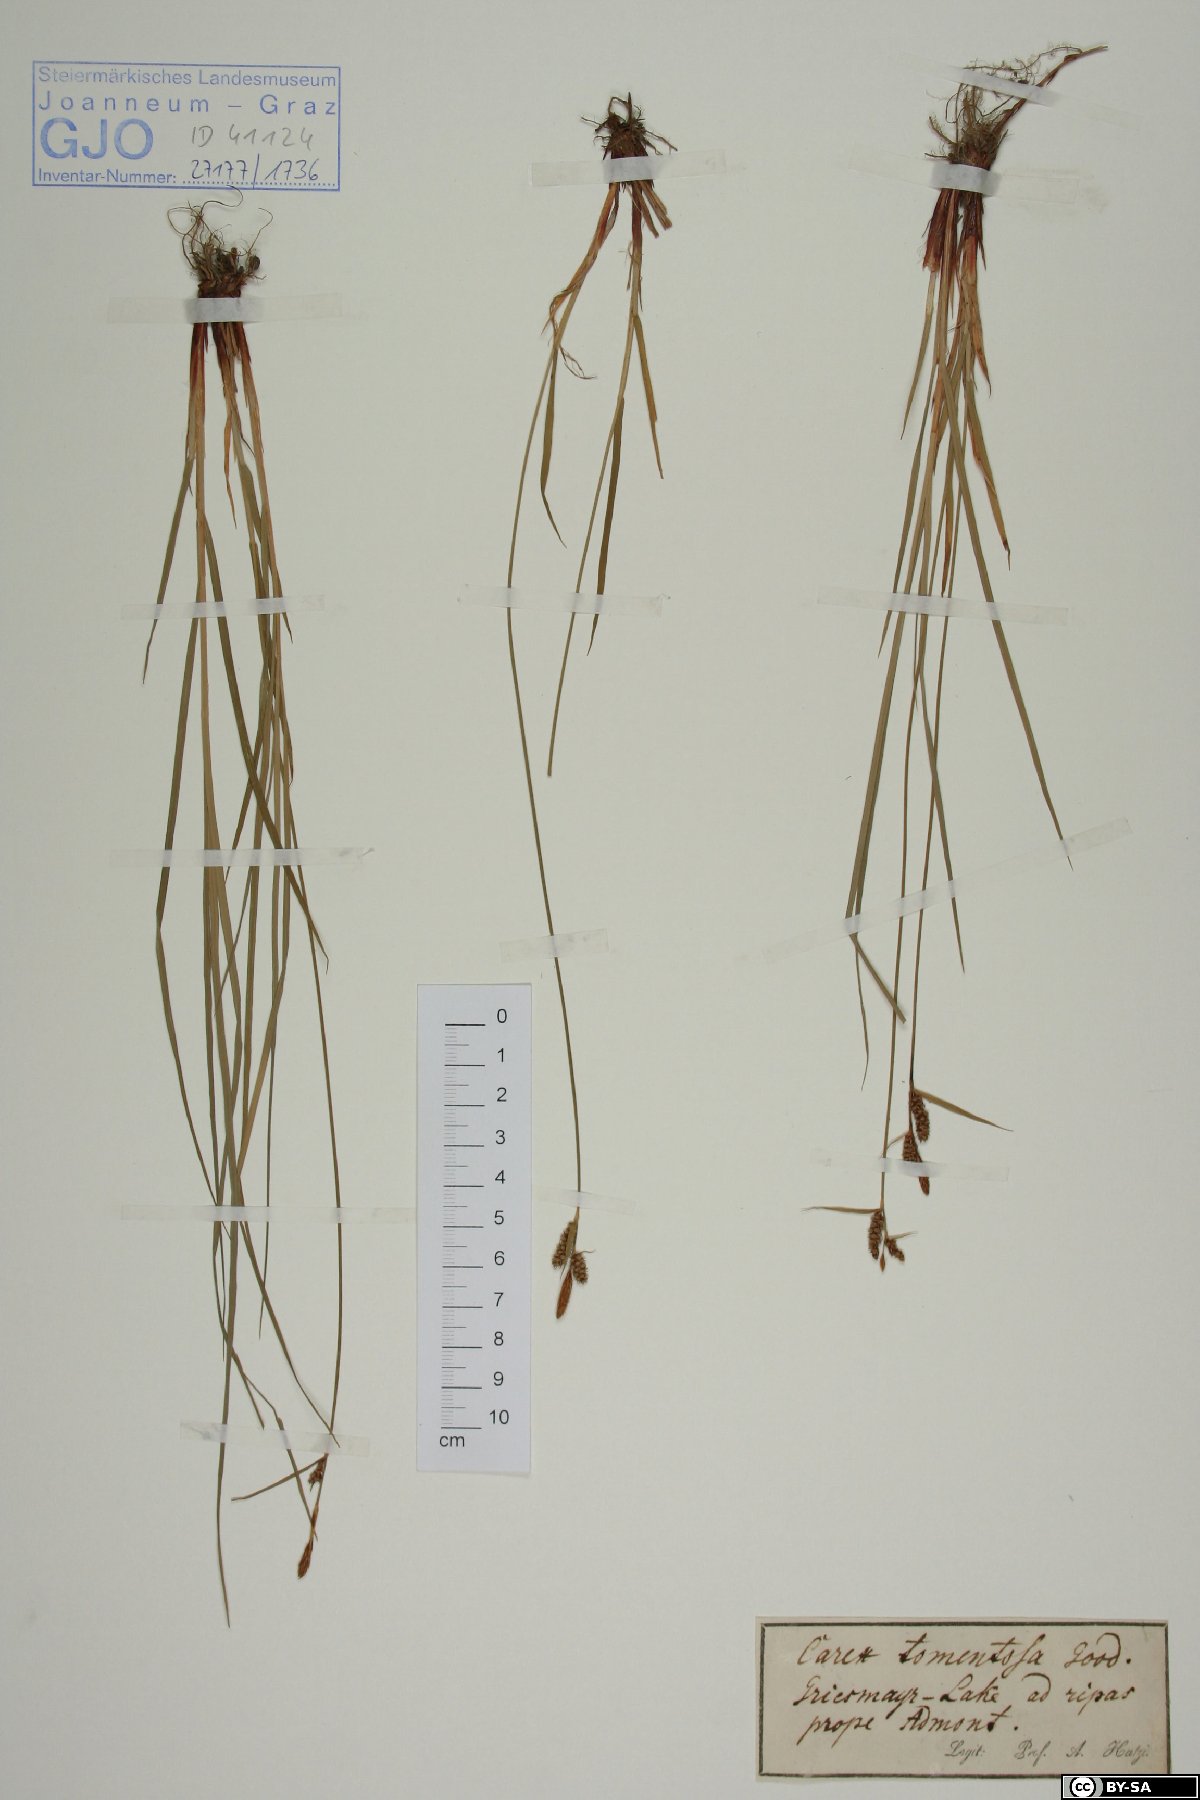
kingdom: Plantae
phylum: Tracheophyta
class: Liliopsida
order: Poales
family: Cyperaceae
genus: Carex
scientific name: Carex tomentosa
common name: Downy-fruited sedge
